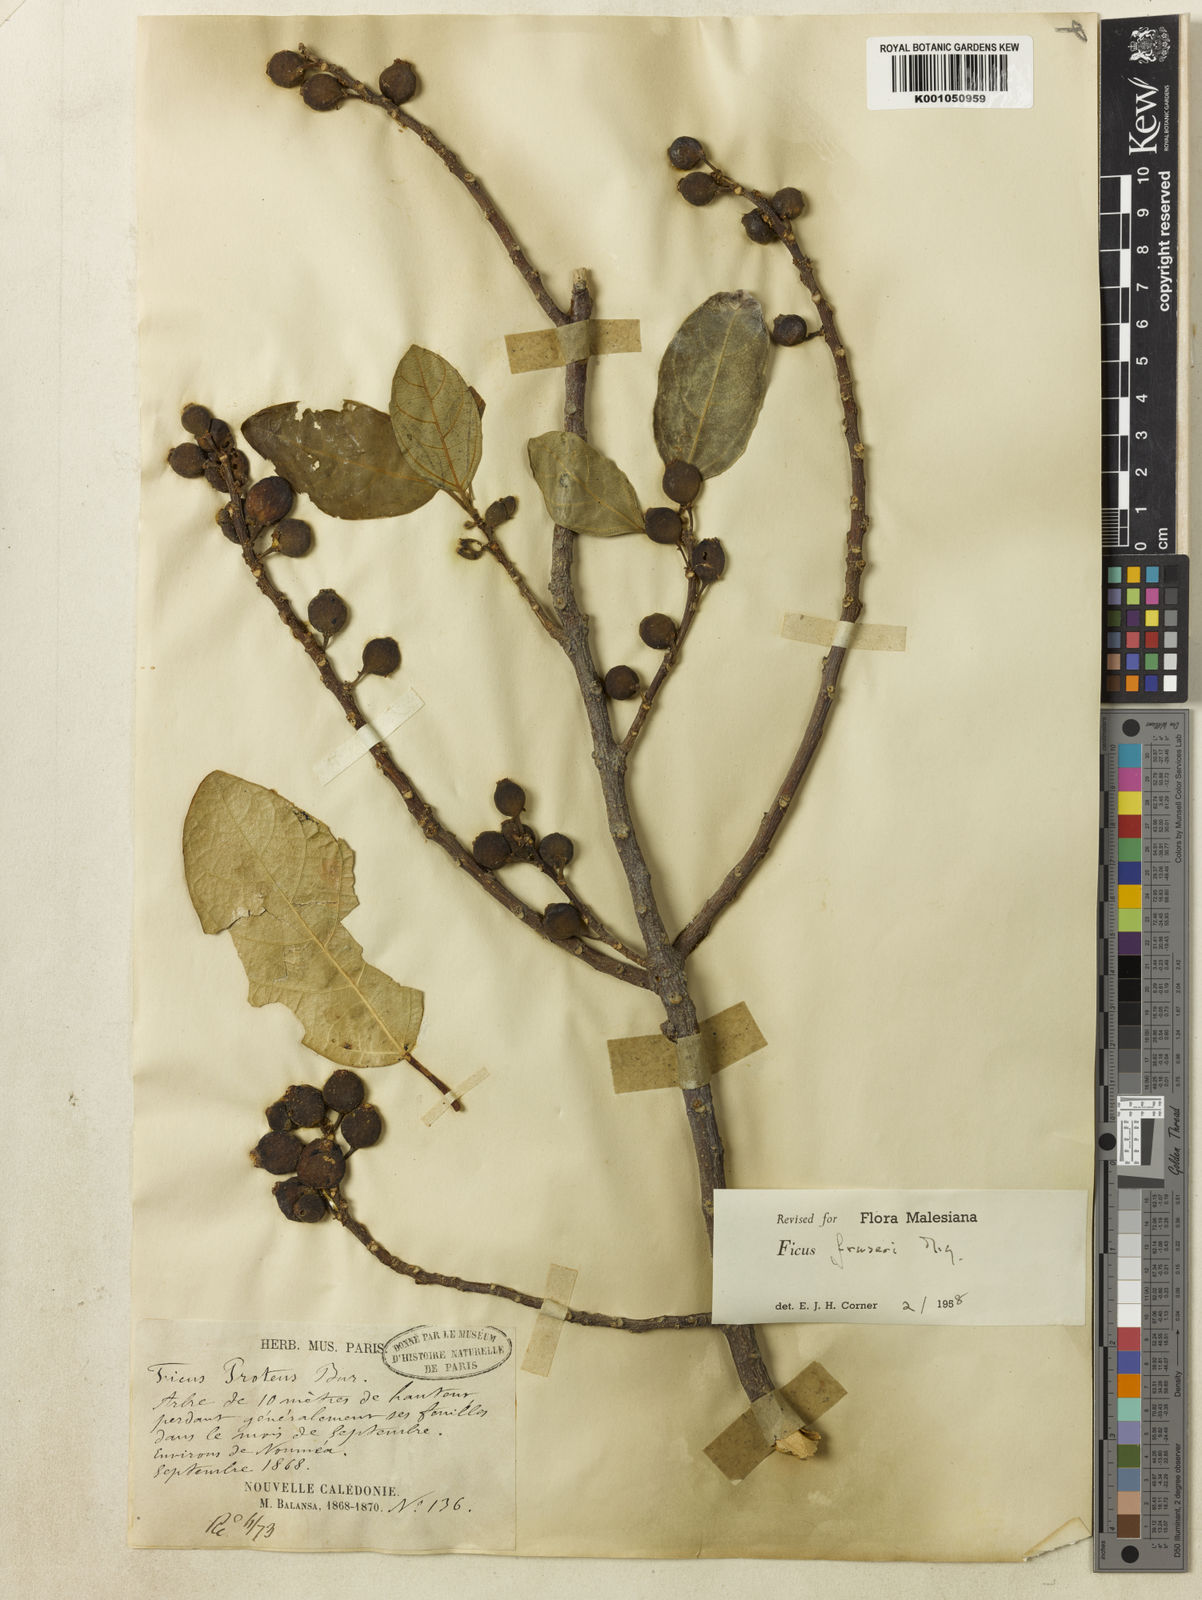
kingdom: Plantae
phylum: Tracheophyta
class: Magnoliopsida
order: Rosales
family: Moraceae
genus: Ficus
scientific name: Ficus fraseri
